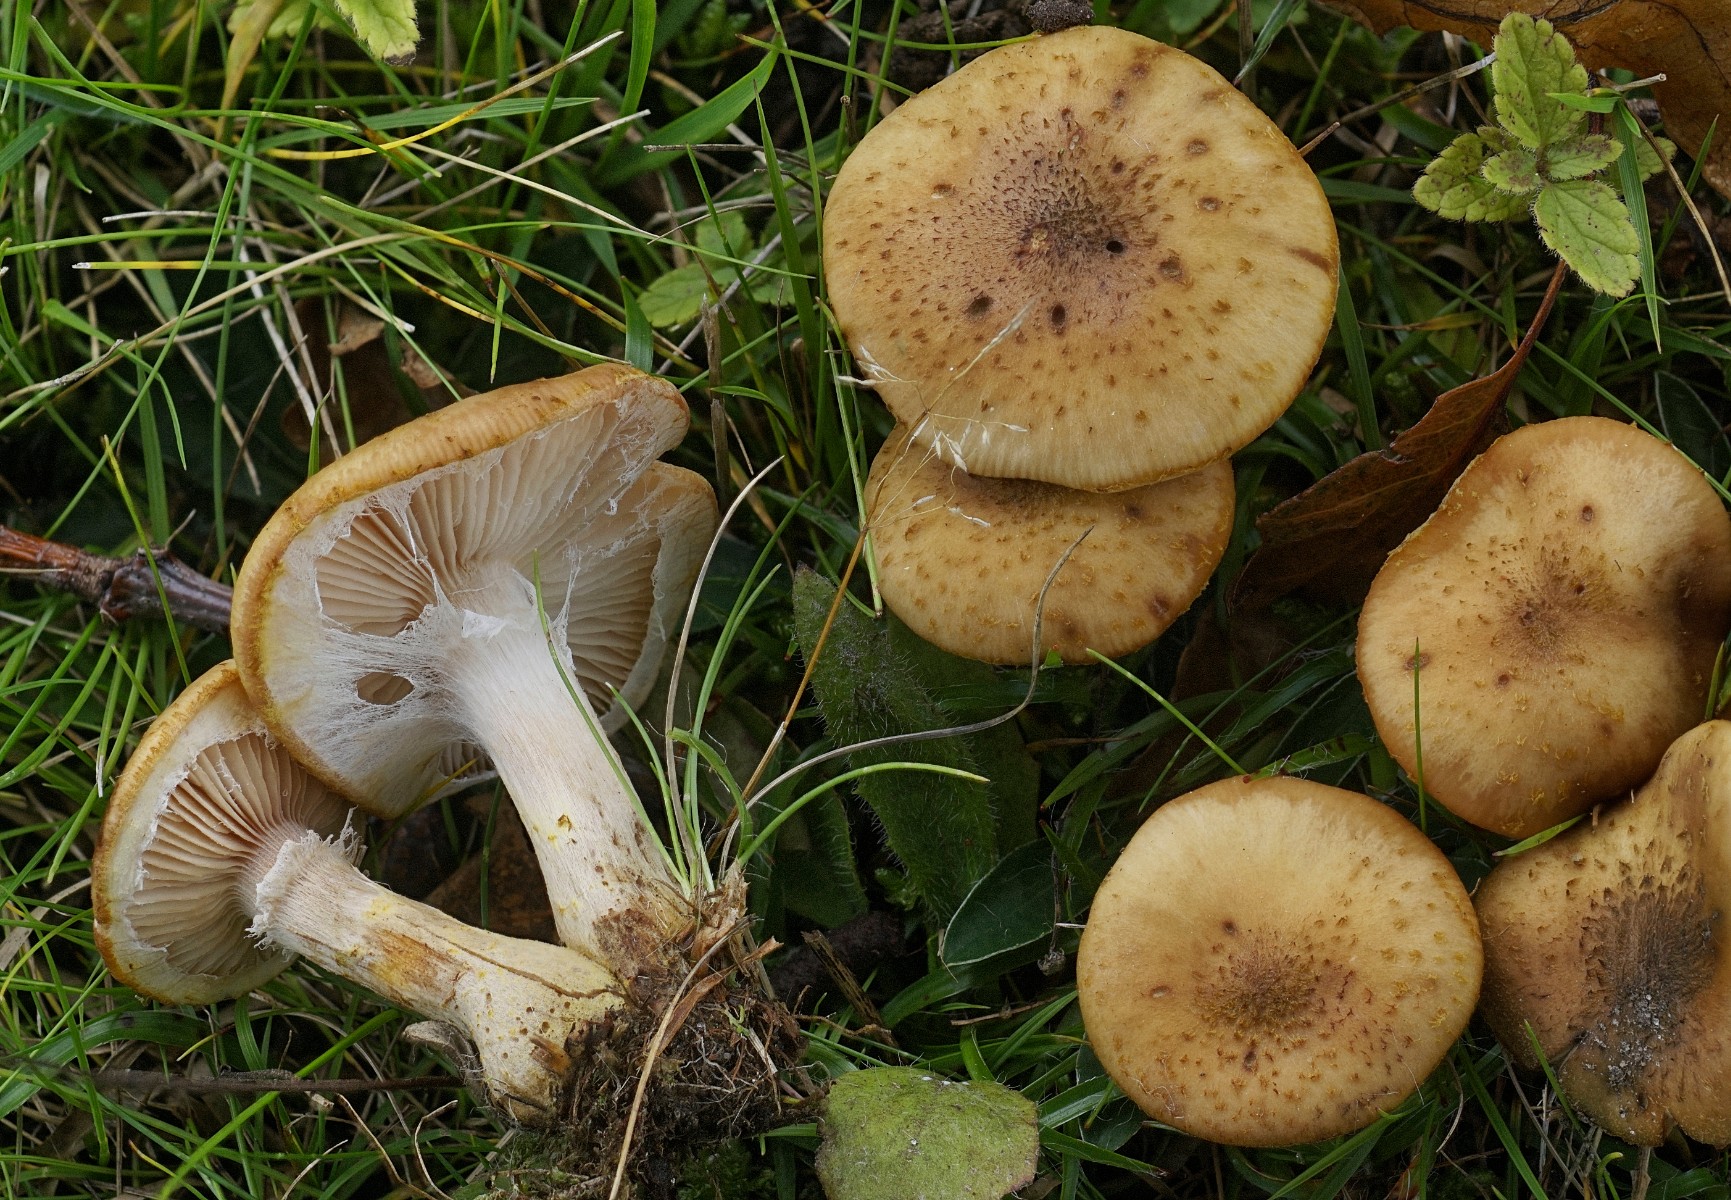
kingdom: Fungi
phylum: Basidiomycota
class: Agaricomycetes
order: Agaricales
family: Physalacriaceae
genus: Armillaria
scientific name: Armillaria lutea
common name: køllestokket honningsvamp
